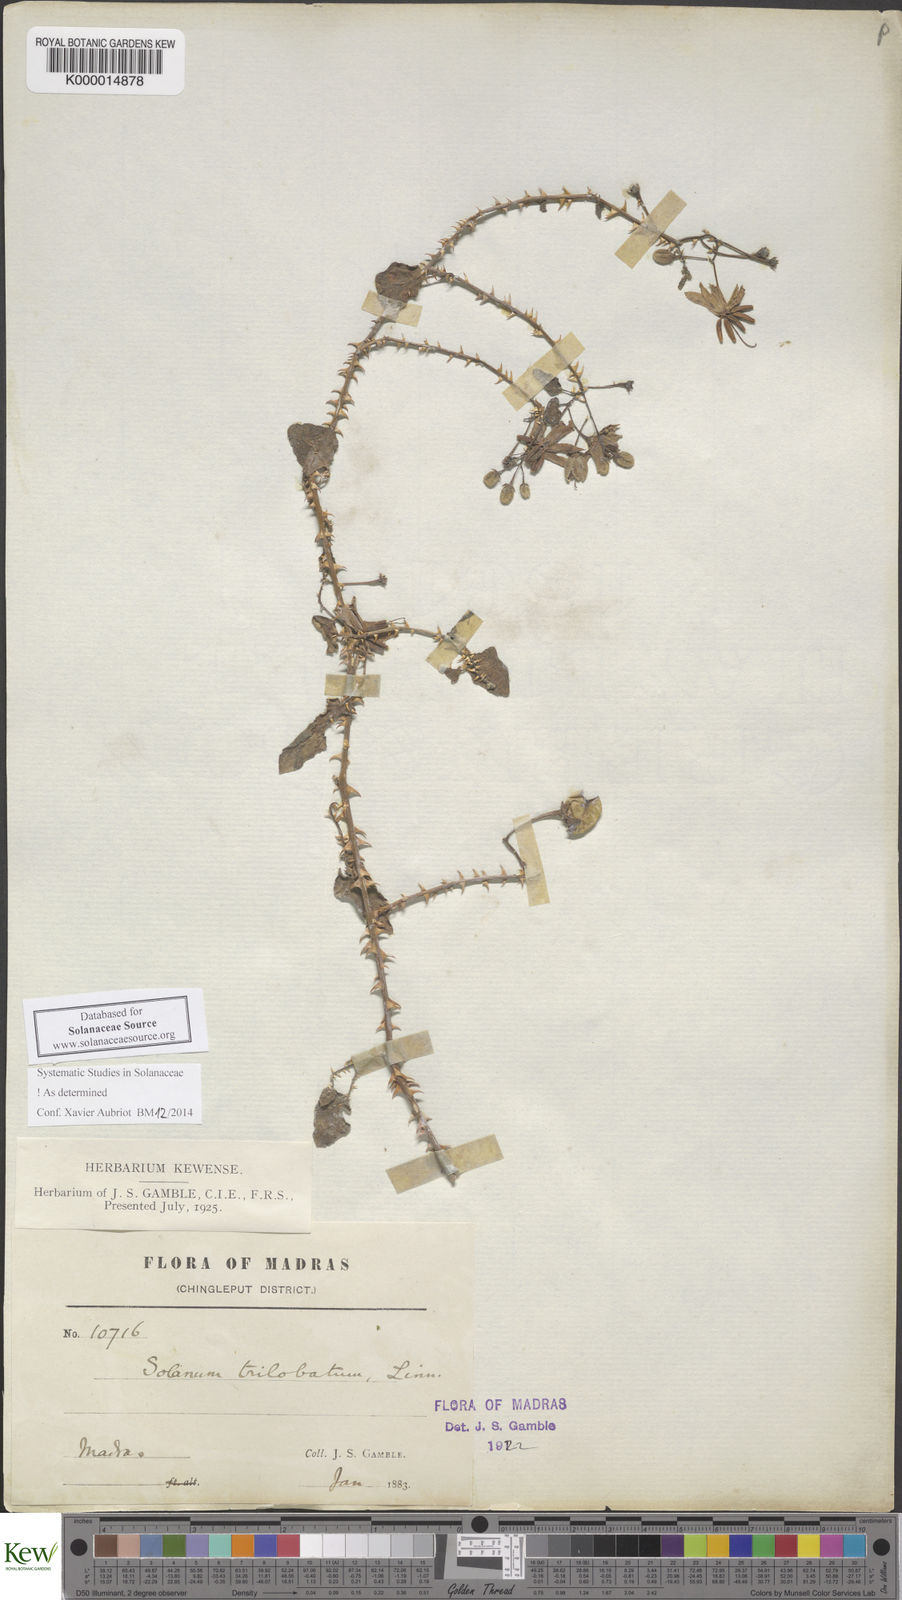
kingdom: Plantae
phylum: Tracheophyta
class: Magnoliopsida
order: Solanales
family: Solanaceae
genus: Solanum
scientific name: Solanum trilobatum
